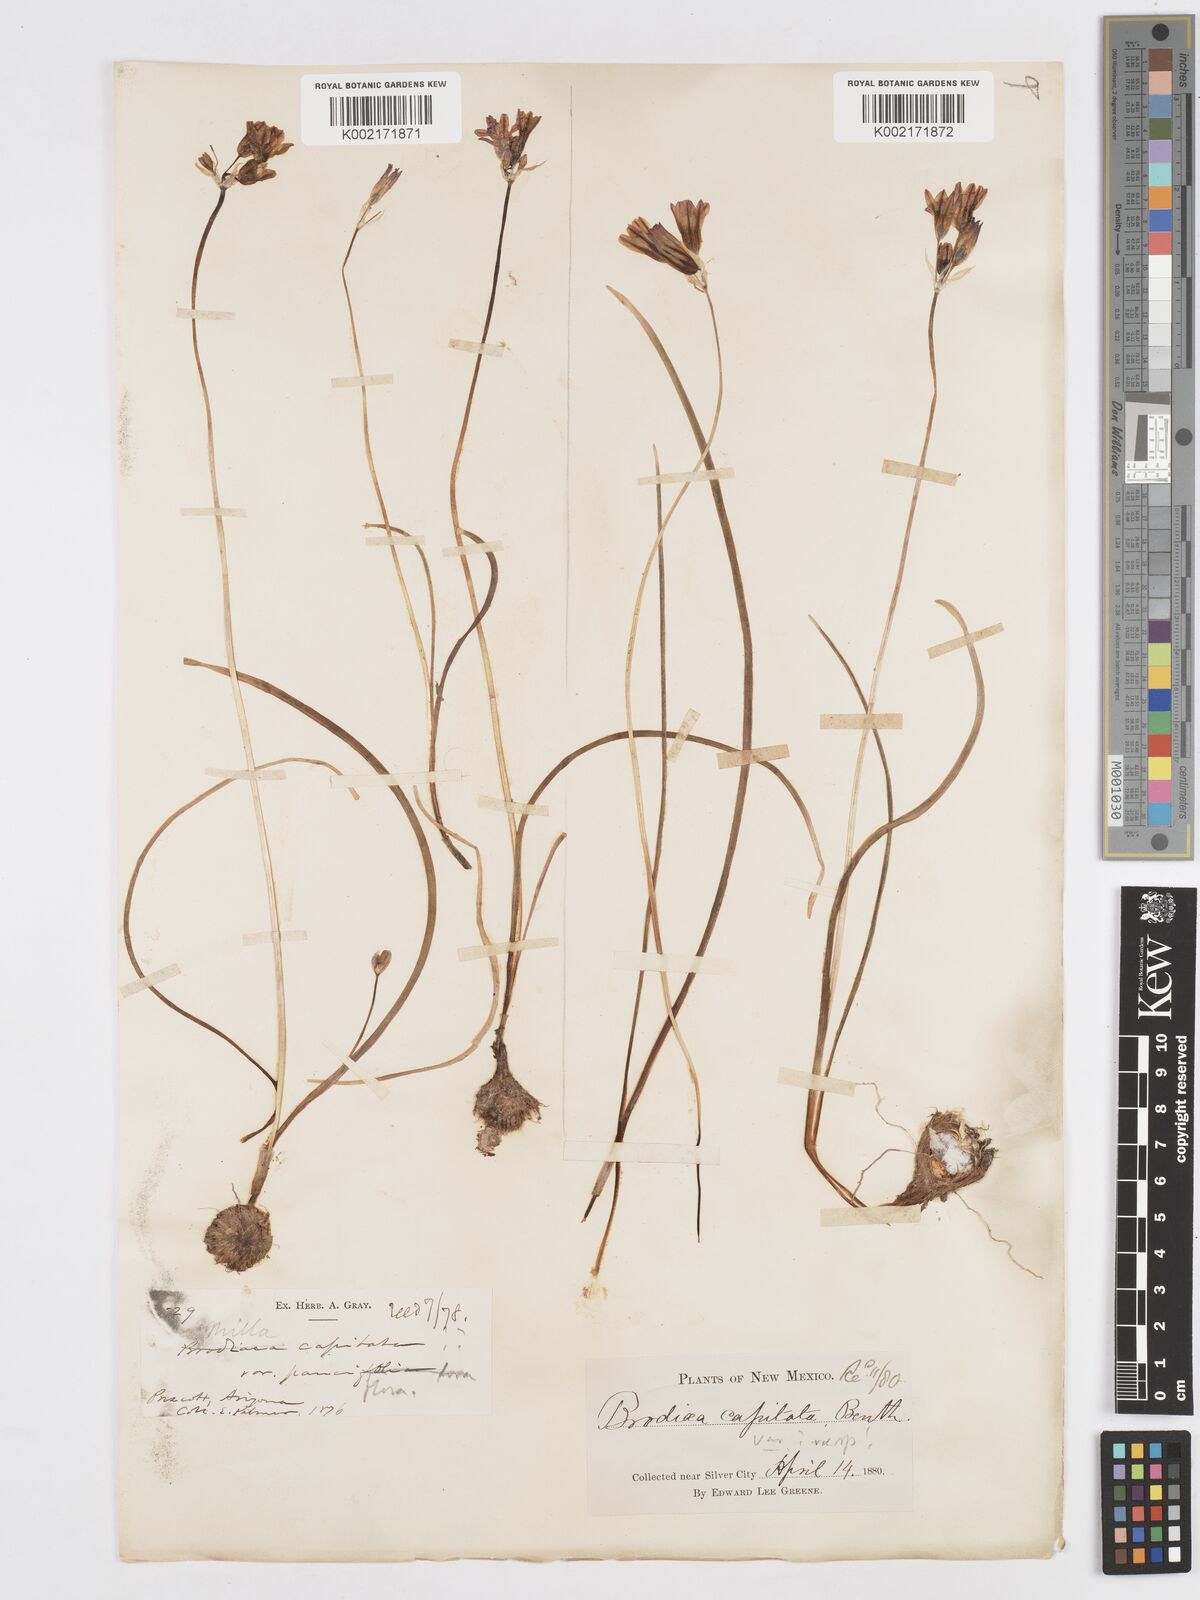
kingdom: Plantae
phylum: Tracheophyta
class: Liliopsida
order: Asparagales
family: Asparagaceae
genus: Dichelostemma
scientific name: Dichelostemma congestum
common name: Fork-tooth ookow
